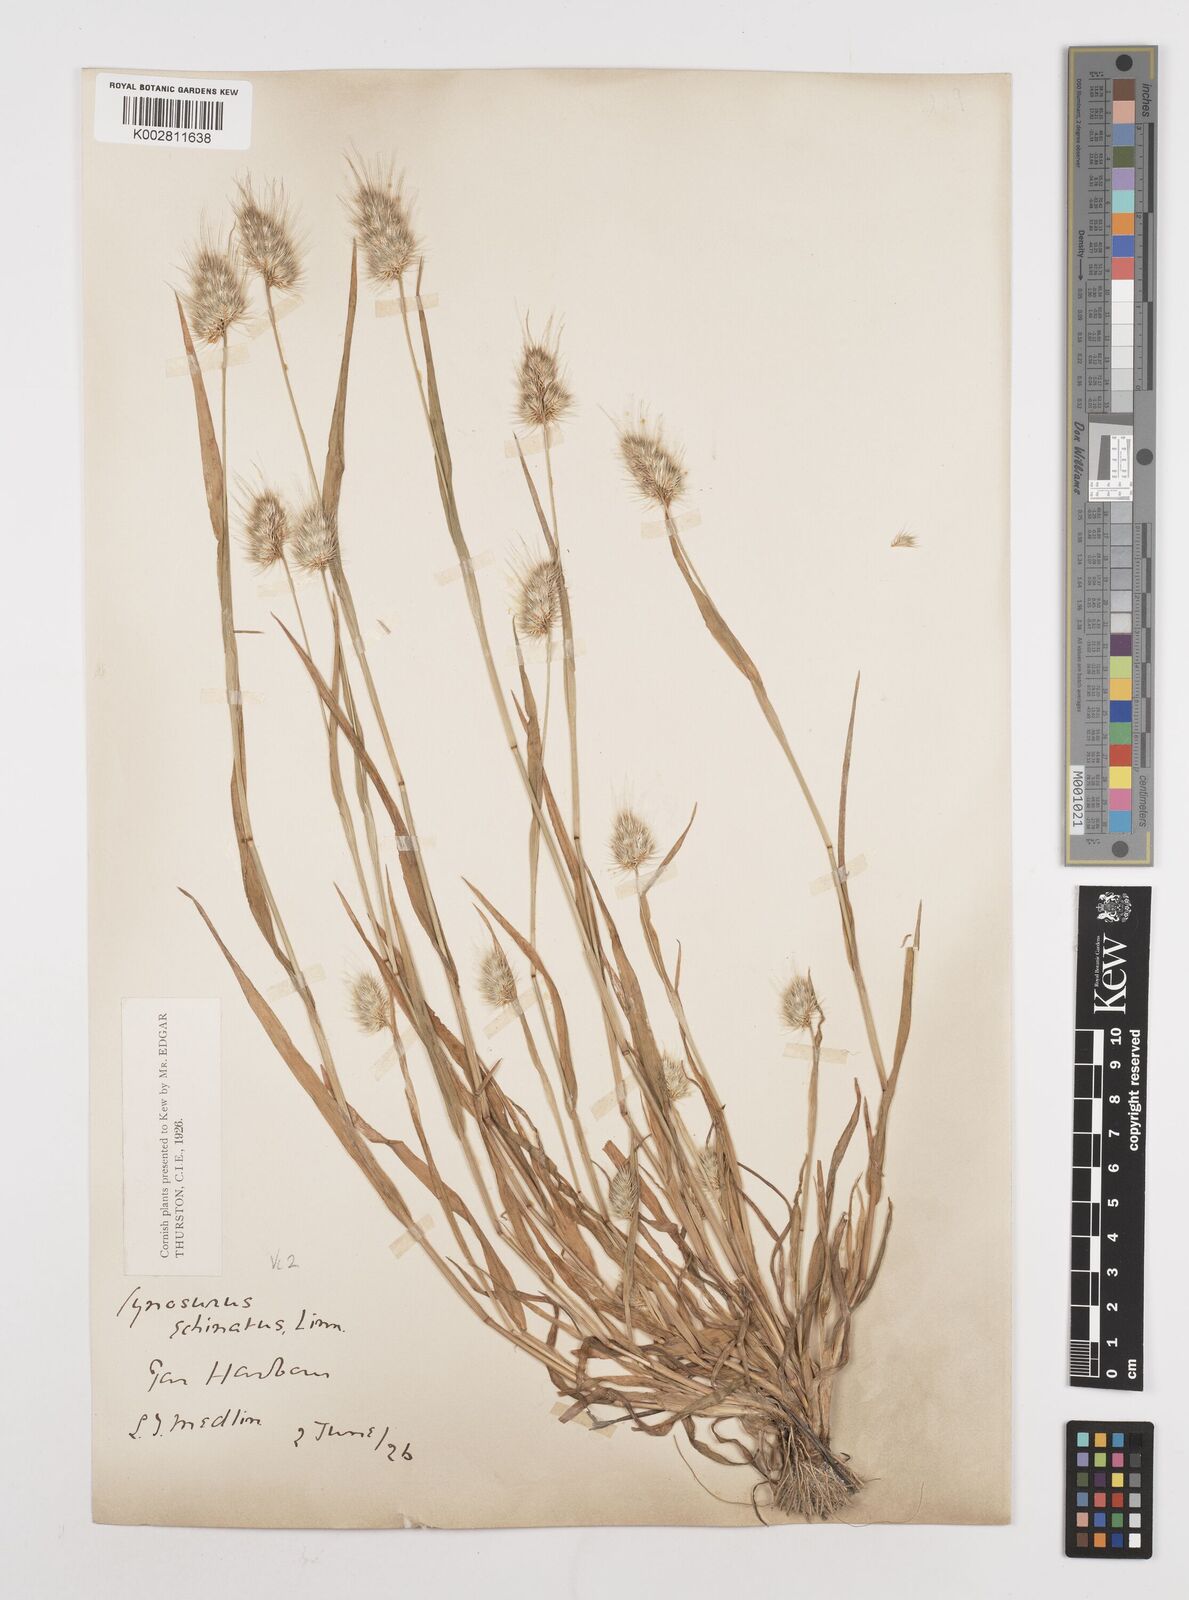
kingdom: Plantae
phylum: Tracheophyta
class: Liliopsida
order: Poales
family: Poaceae
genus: Cynosurus
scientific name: Cynosurus echinatus
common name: Rough dog's-tail
